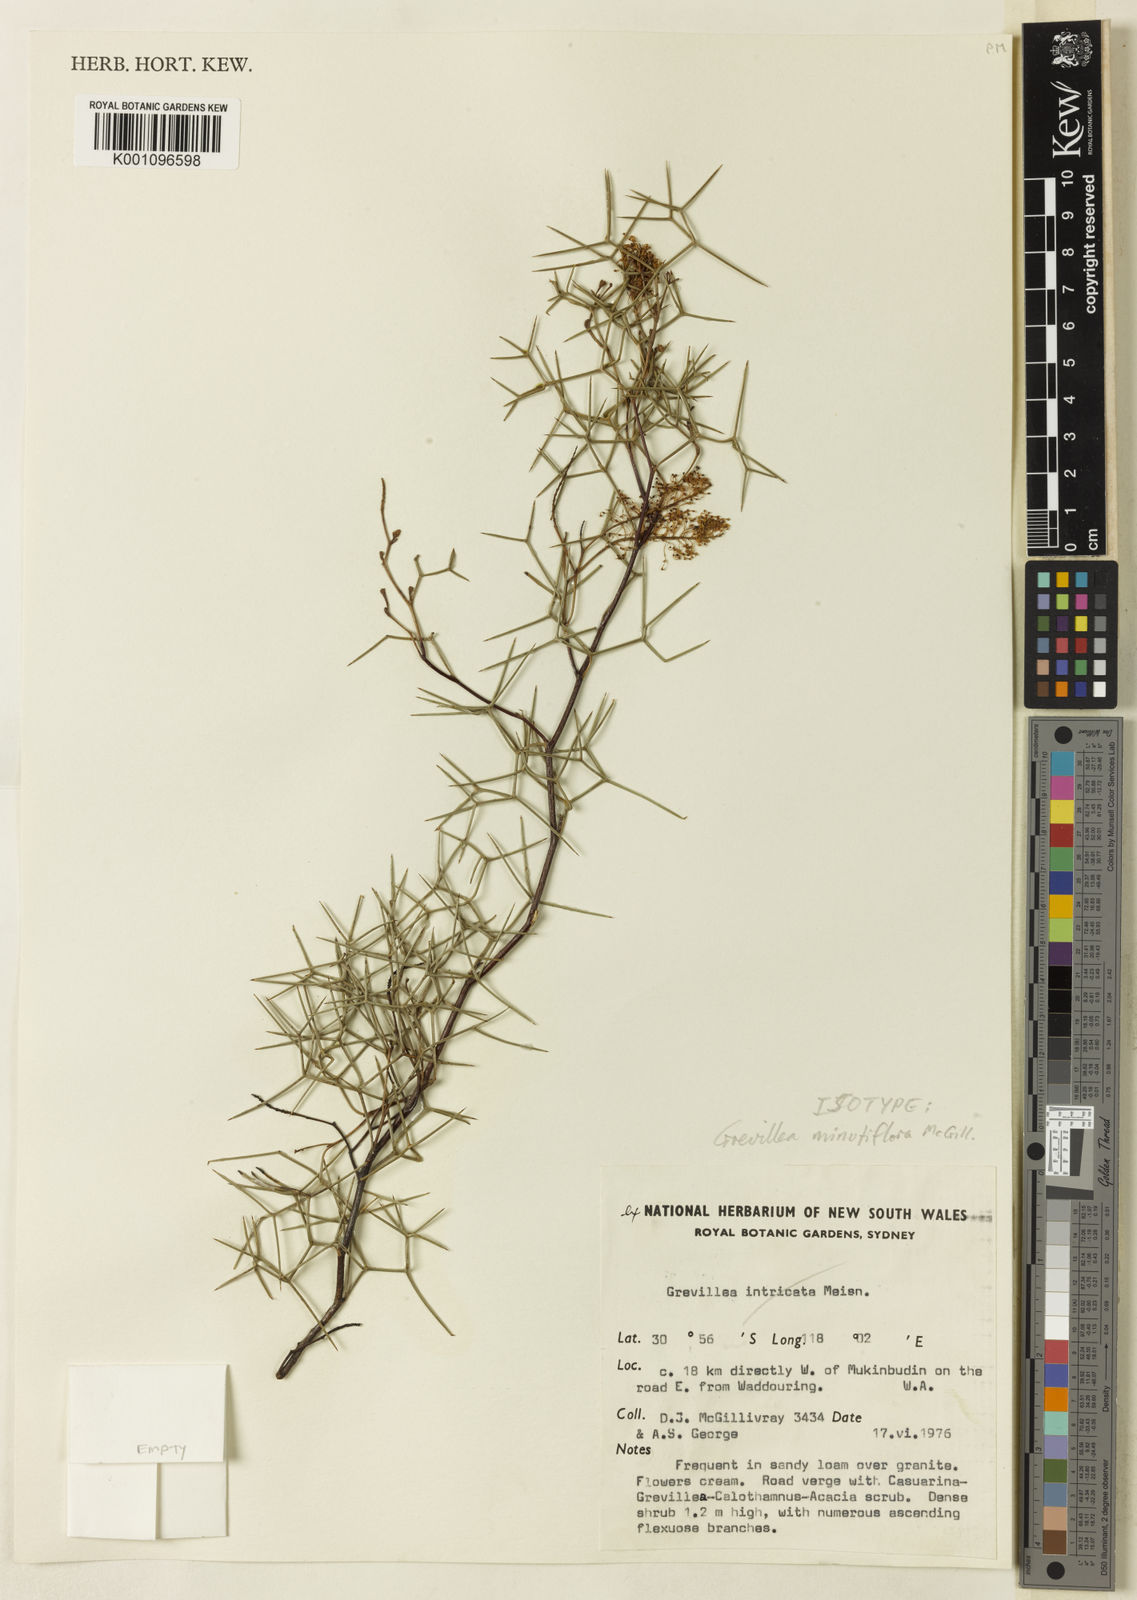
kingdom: Plantae
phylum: Tracheophyta
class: Magnoliopsida
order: Proteales
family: Proteaceae
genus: Grevillea
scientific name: Grevillea minutiflora
